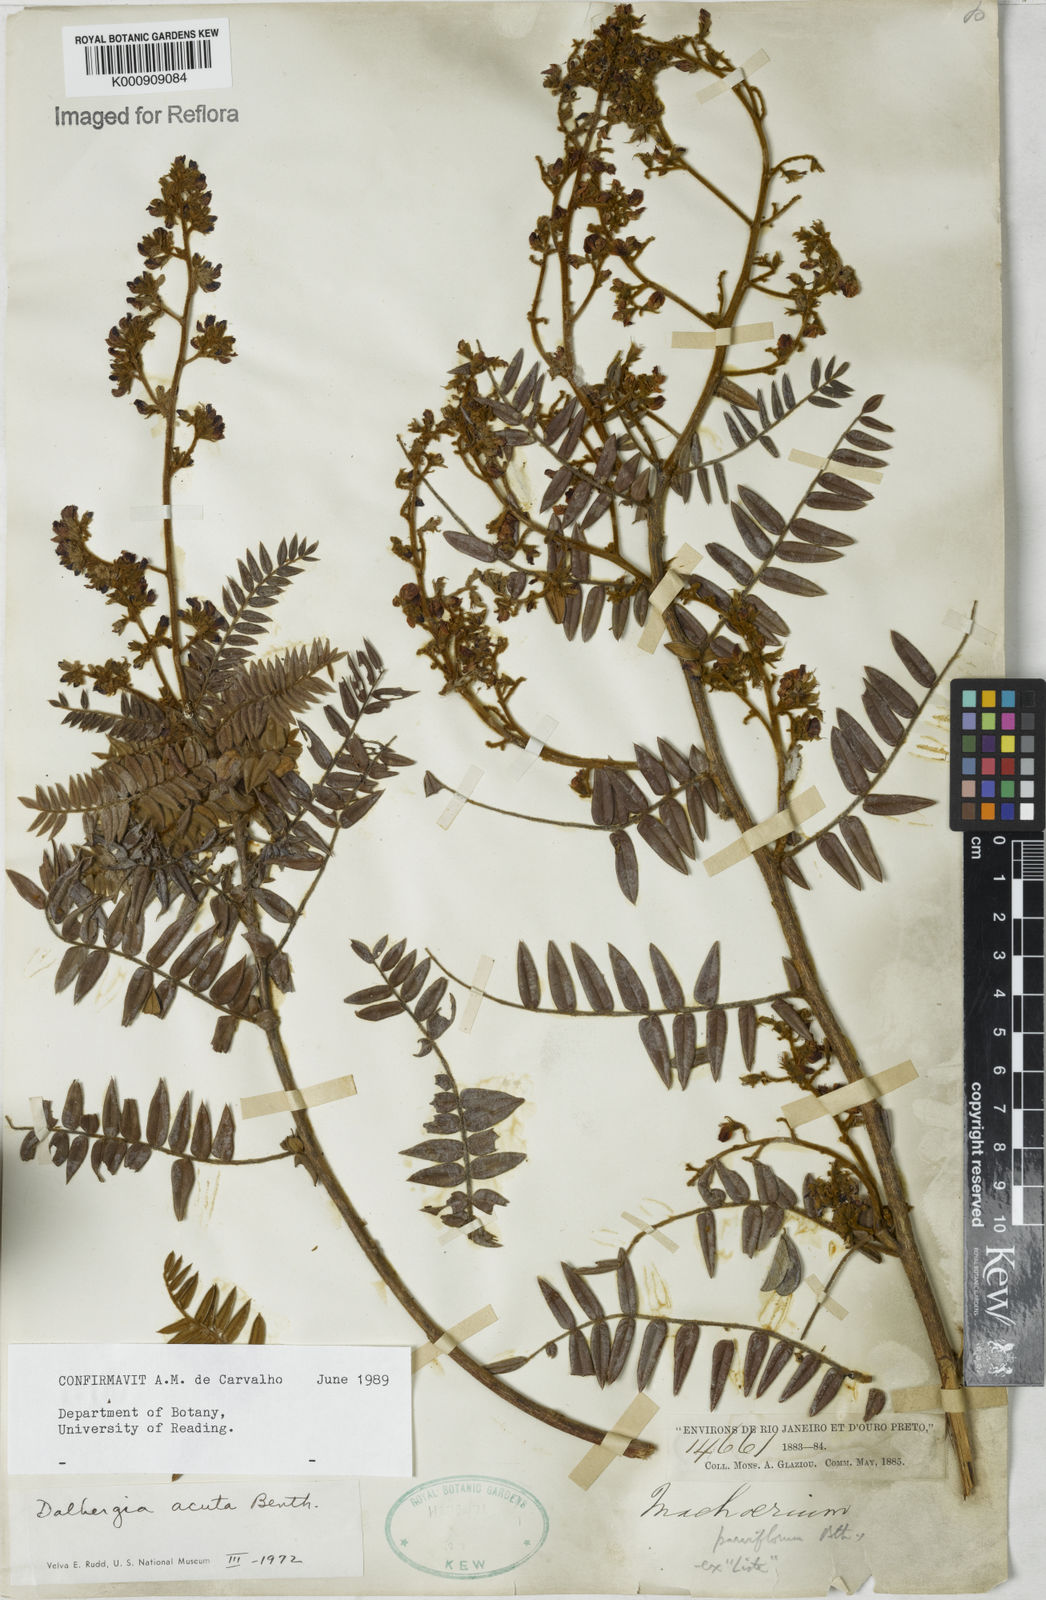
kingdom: Plantae
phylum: Tracheophyta
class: Magnoliopsida
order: Fabales
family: Fabaceae
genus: Dalbergia
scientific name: Dalbergia acuta
